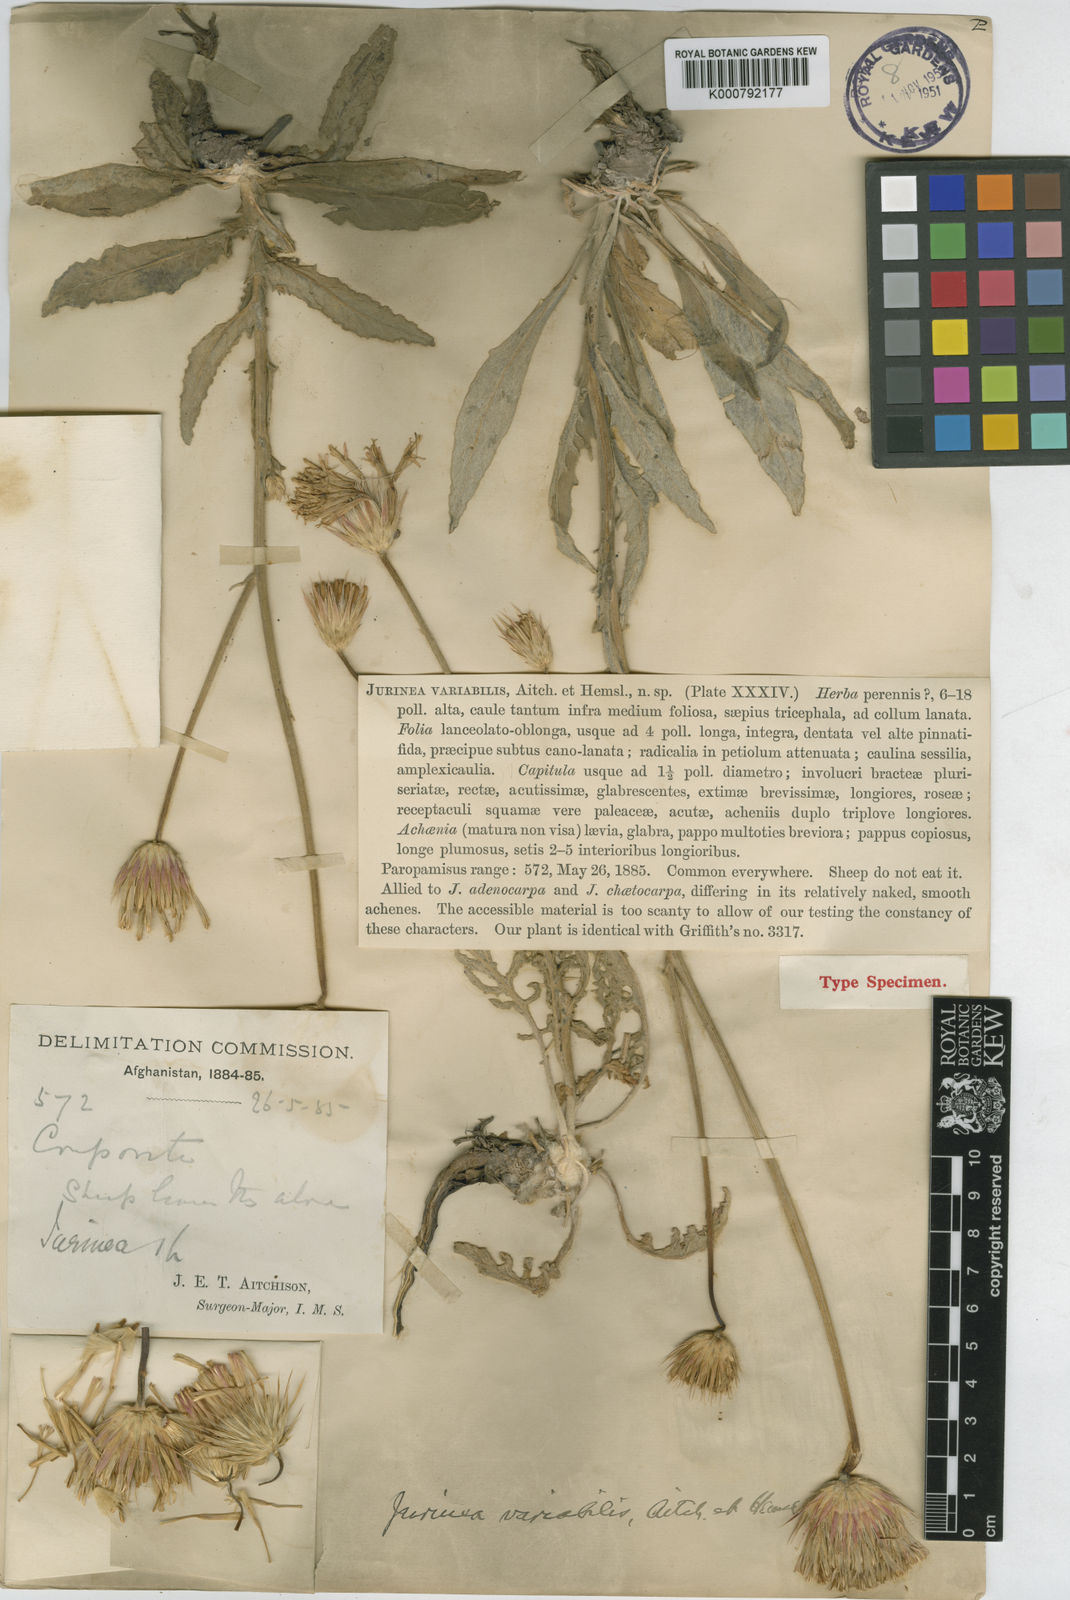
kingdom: Plantae
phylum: Tracheophyta
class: Magnoliopsida
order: Asterales
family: Asteraceae
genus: Jurinea
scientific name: Jurinea radians
